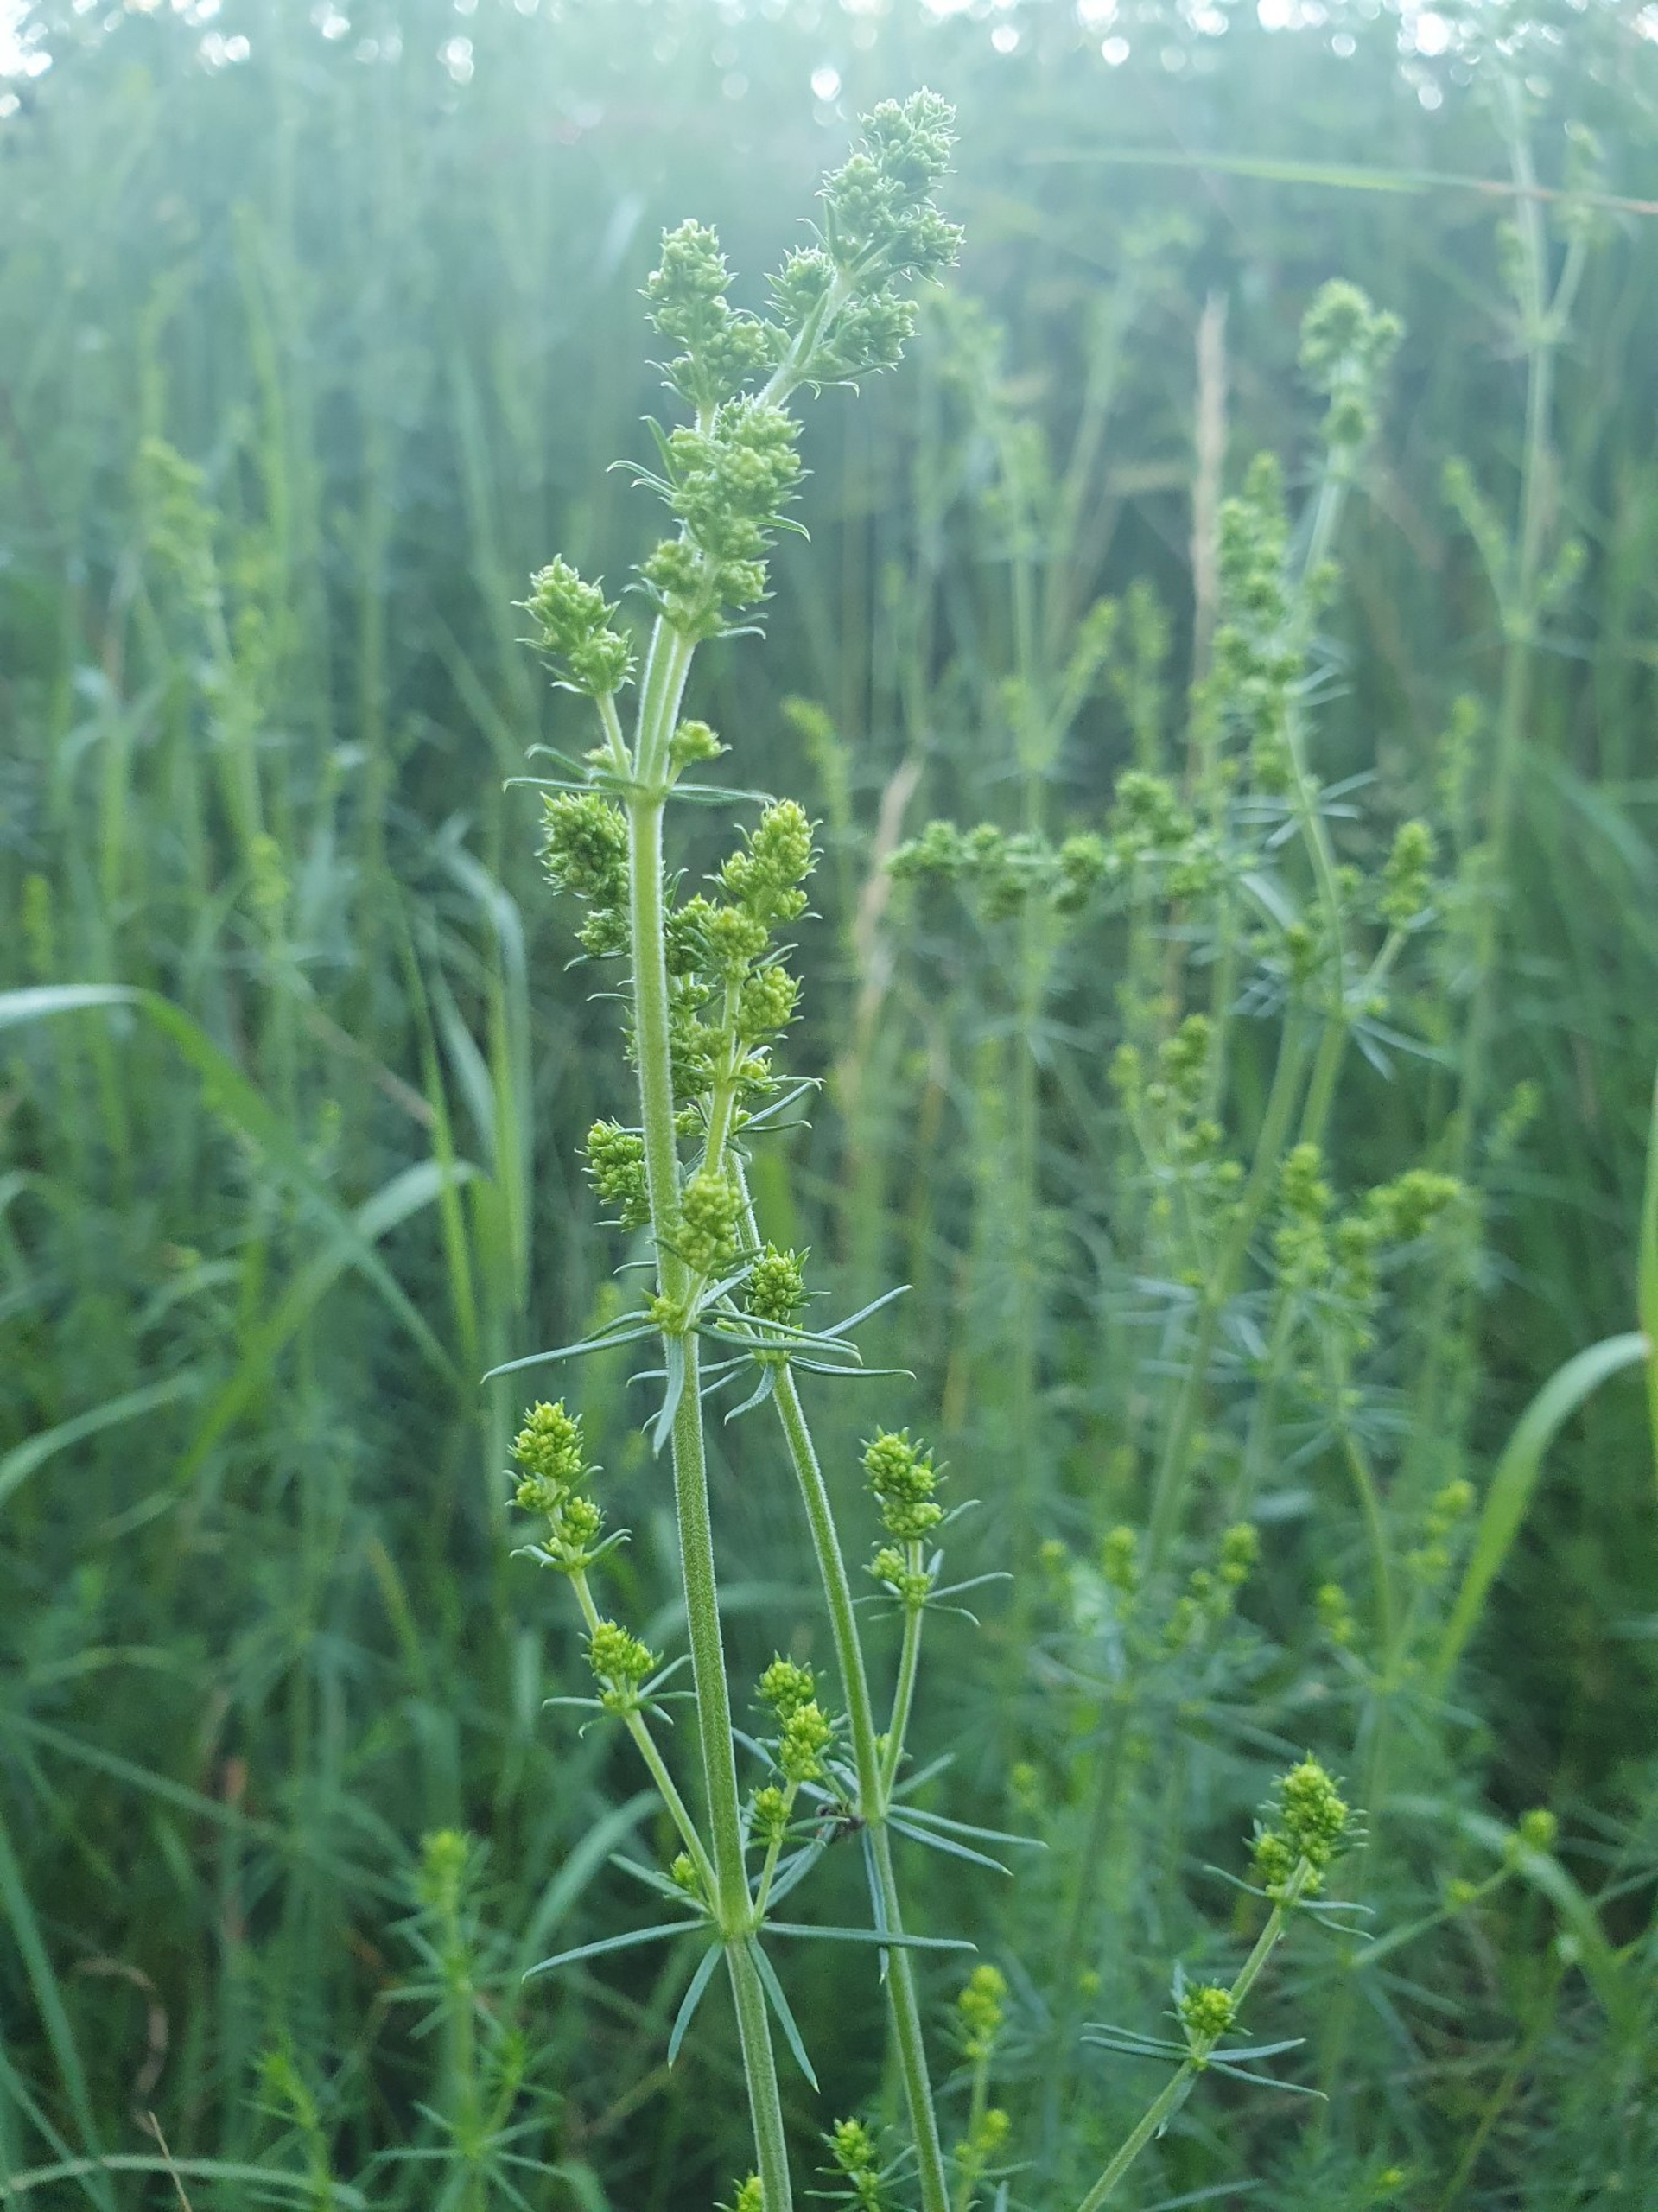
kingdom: Plantae
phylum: Tracheophyta
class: Magnoliopsida
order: Gentianales
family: Rubiaceae
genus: Galium
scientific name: Galium verum
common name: Gul snerre
